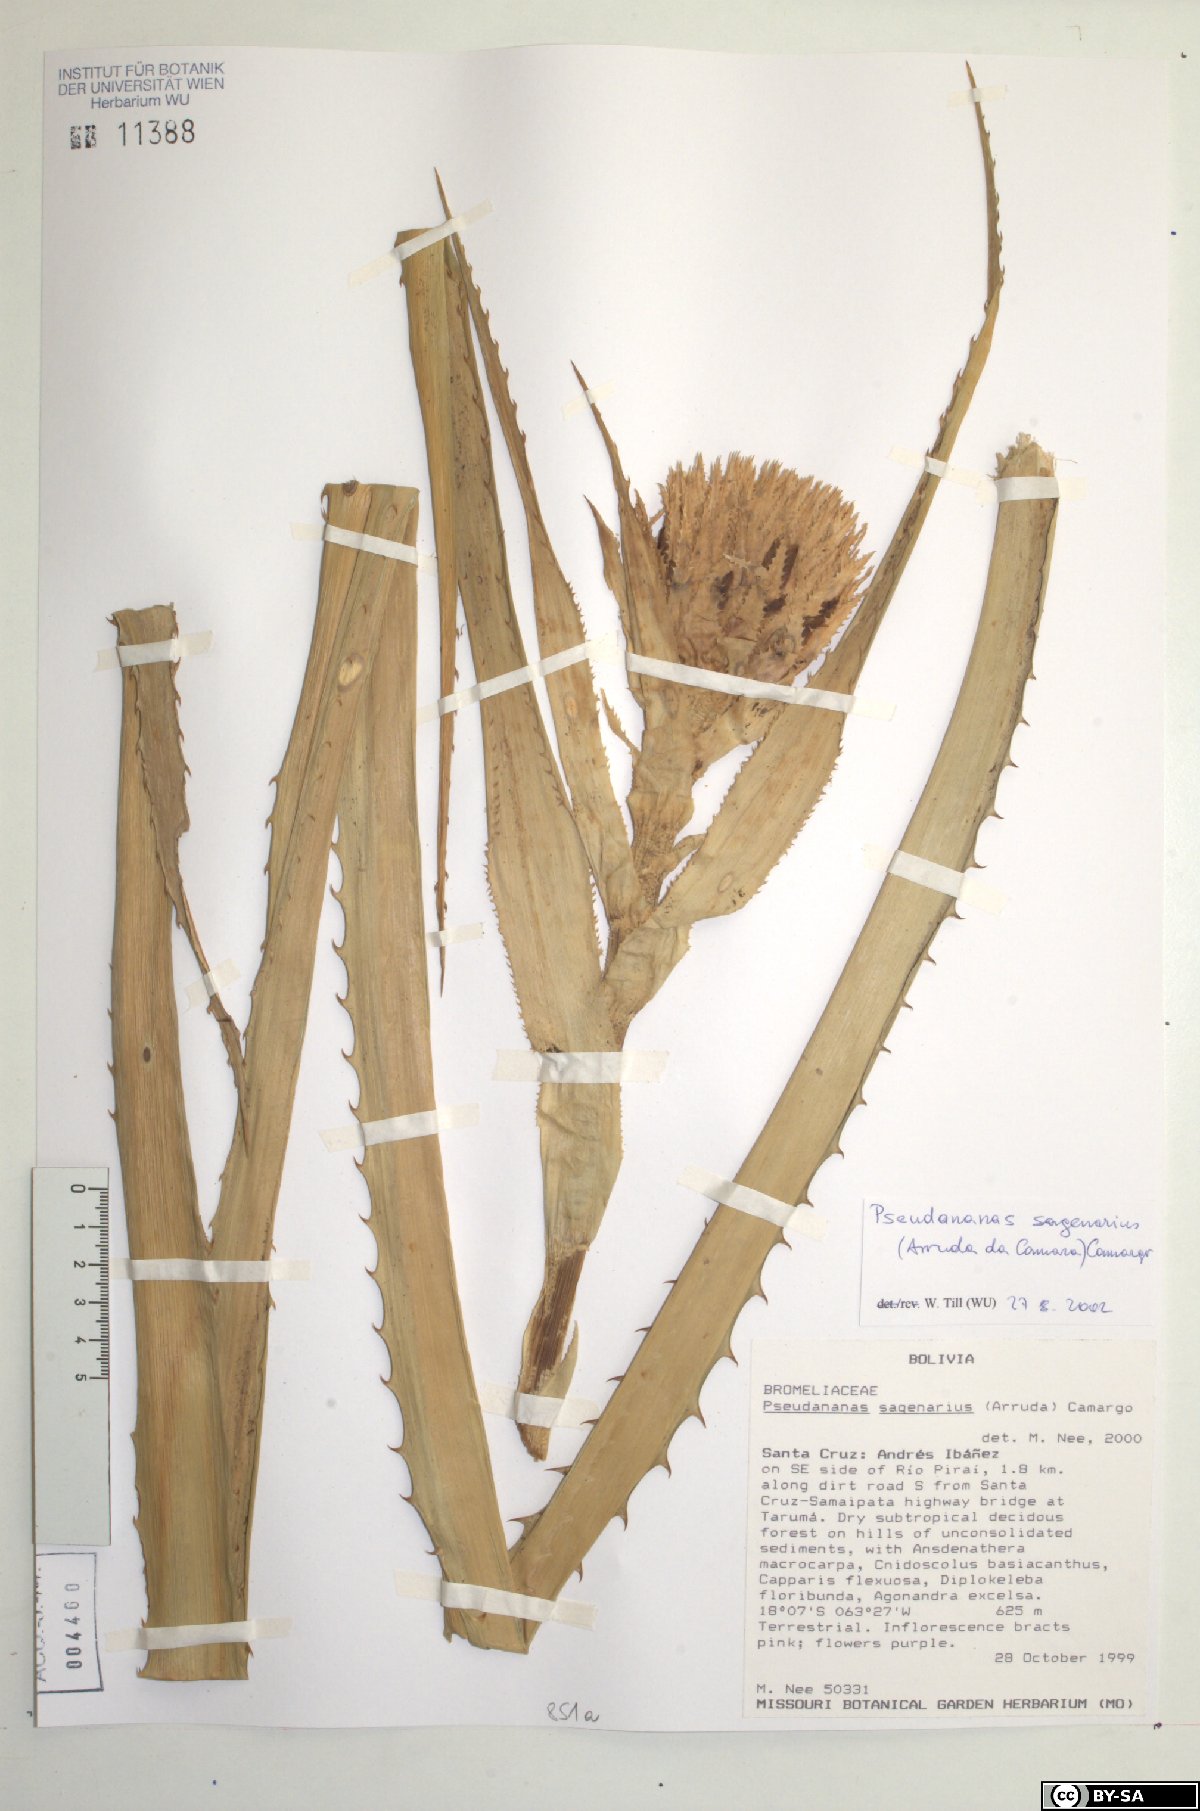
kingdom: Plantae
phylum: Tracheophyta
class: Liliopsida
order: Poales
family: Bromeliaceae
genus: Ananas
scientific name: Ananas comosus
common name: Pineapple
